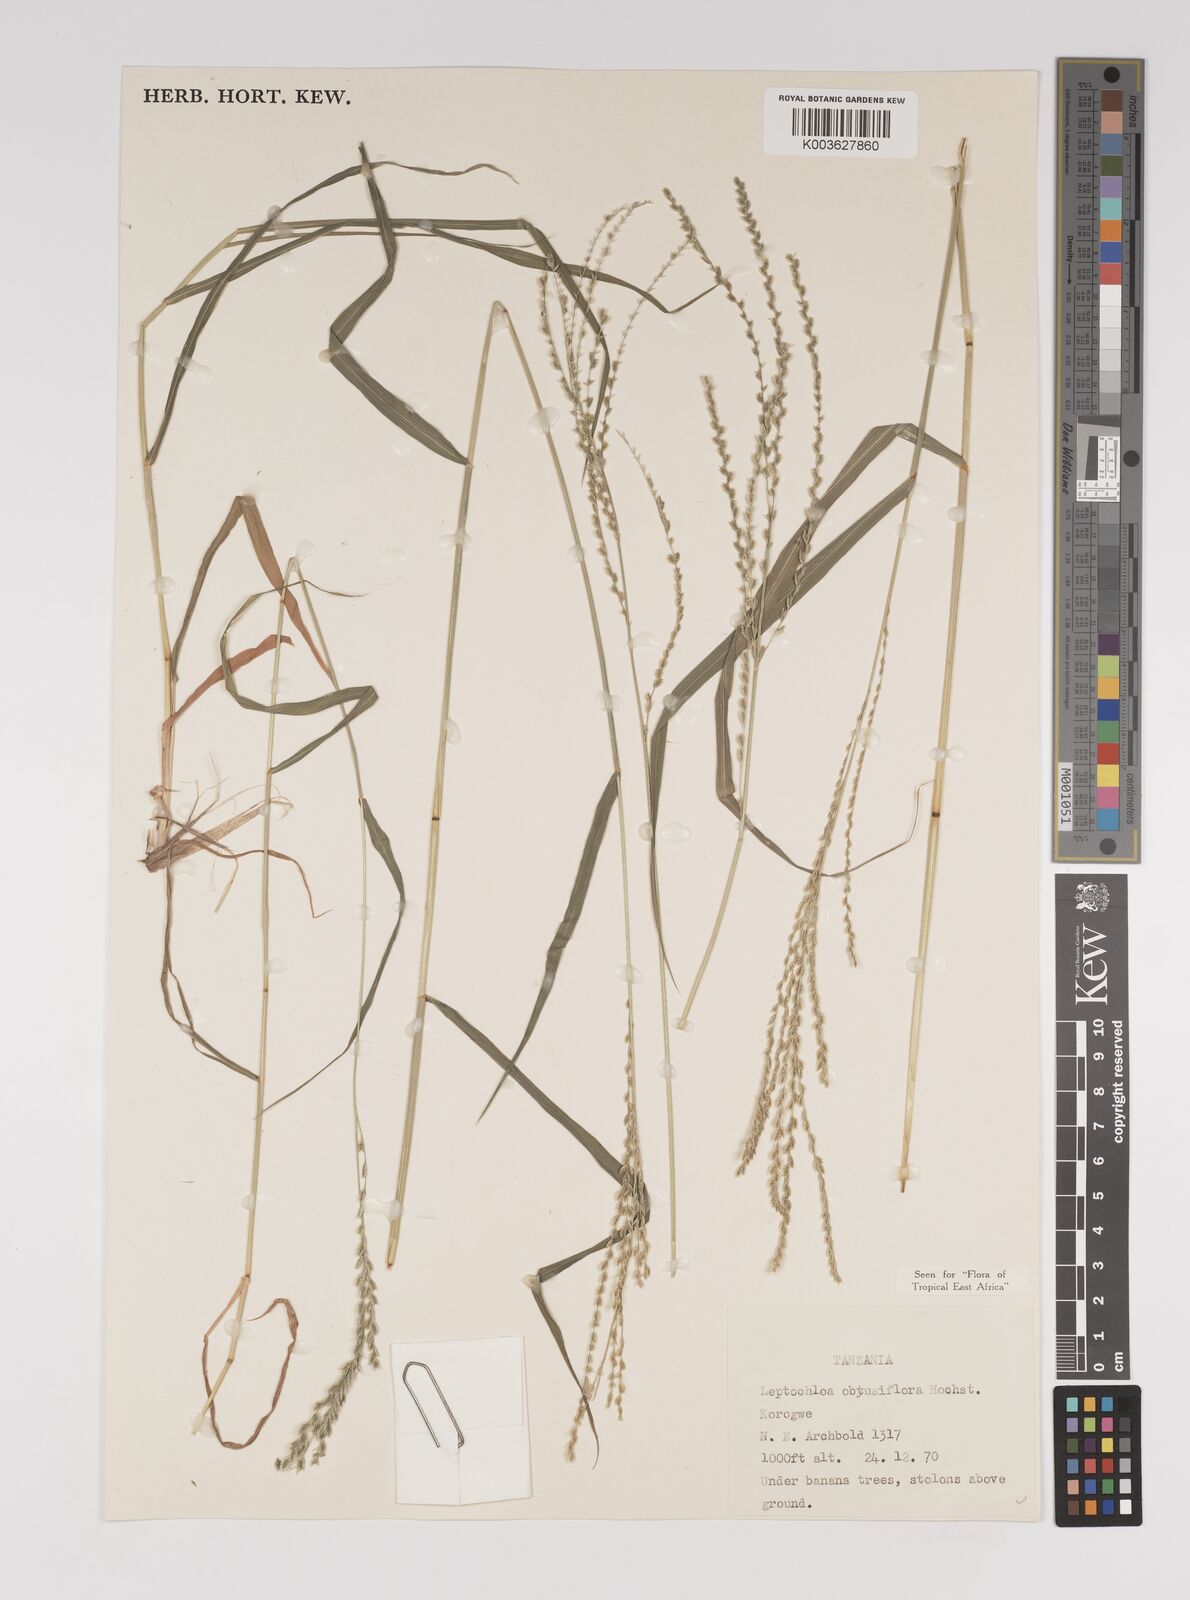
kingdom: Plantae
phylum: Tracheophyta
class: Liliopsida
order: Poales
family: Poaceae
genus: Disakisperma
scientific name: Disakisperma obtusiflorum
